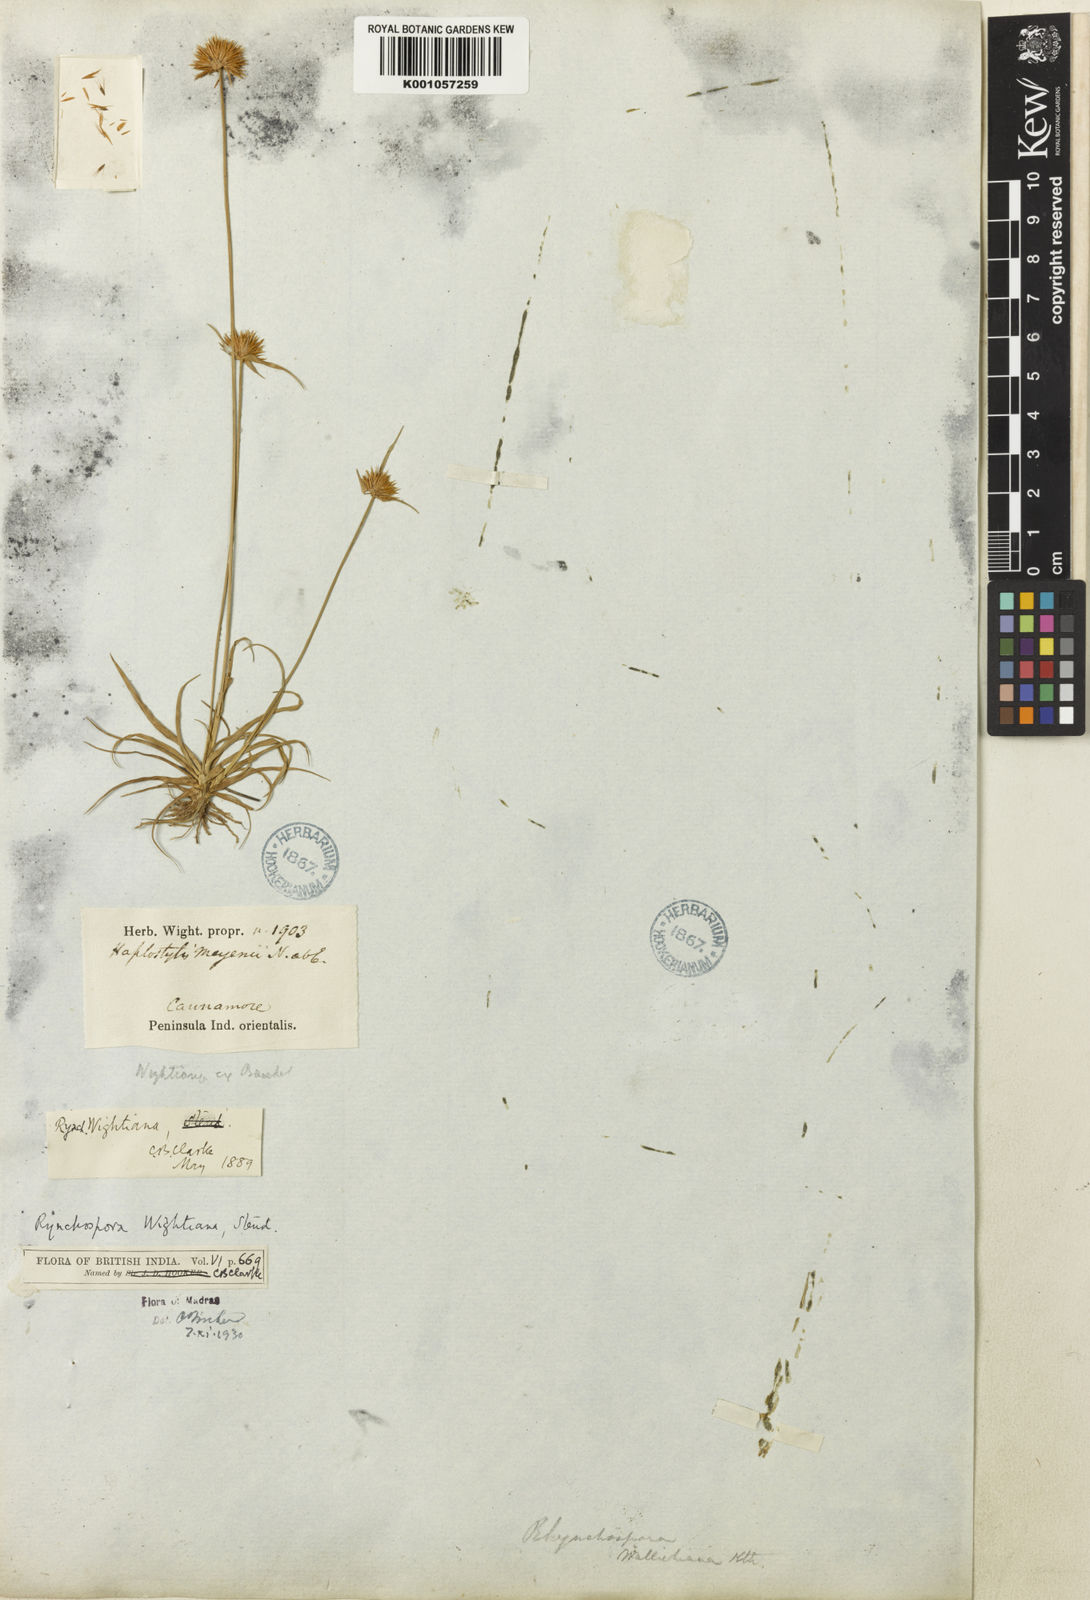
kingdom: Plantae
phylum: Tracheophyta
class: Liliopsida
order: Poales
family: Cyperaceae
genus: Rhynchospora
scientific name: Rhynchospora wightiana
